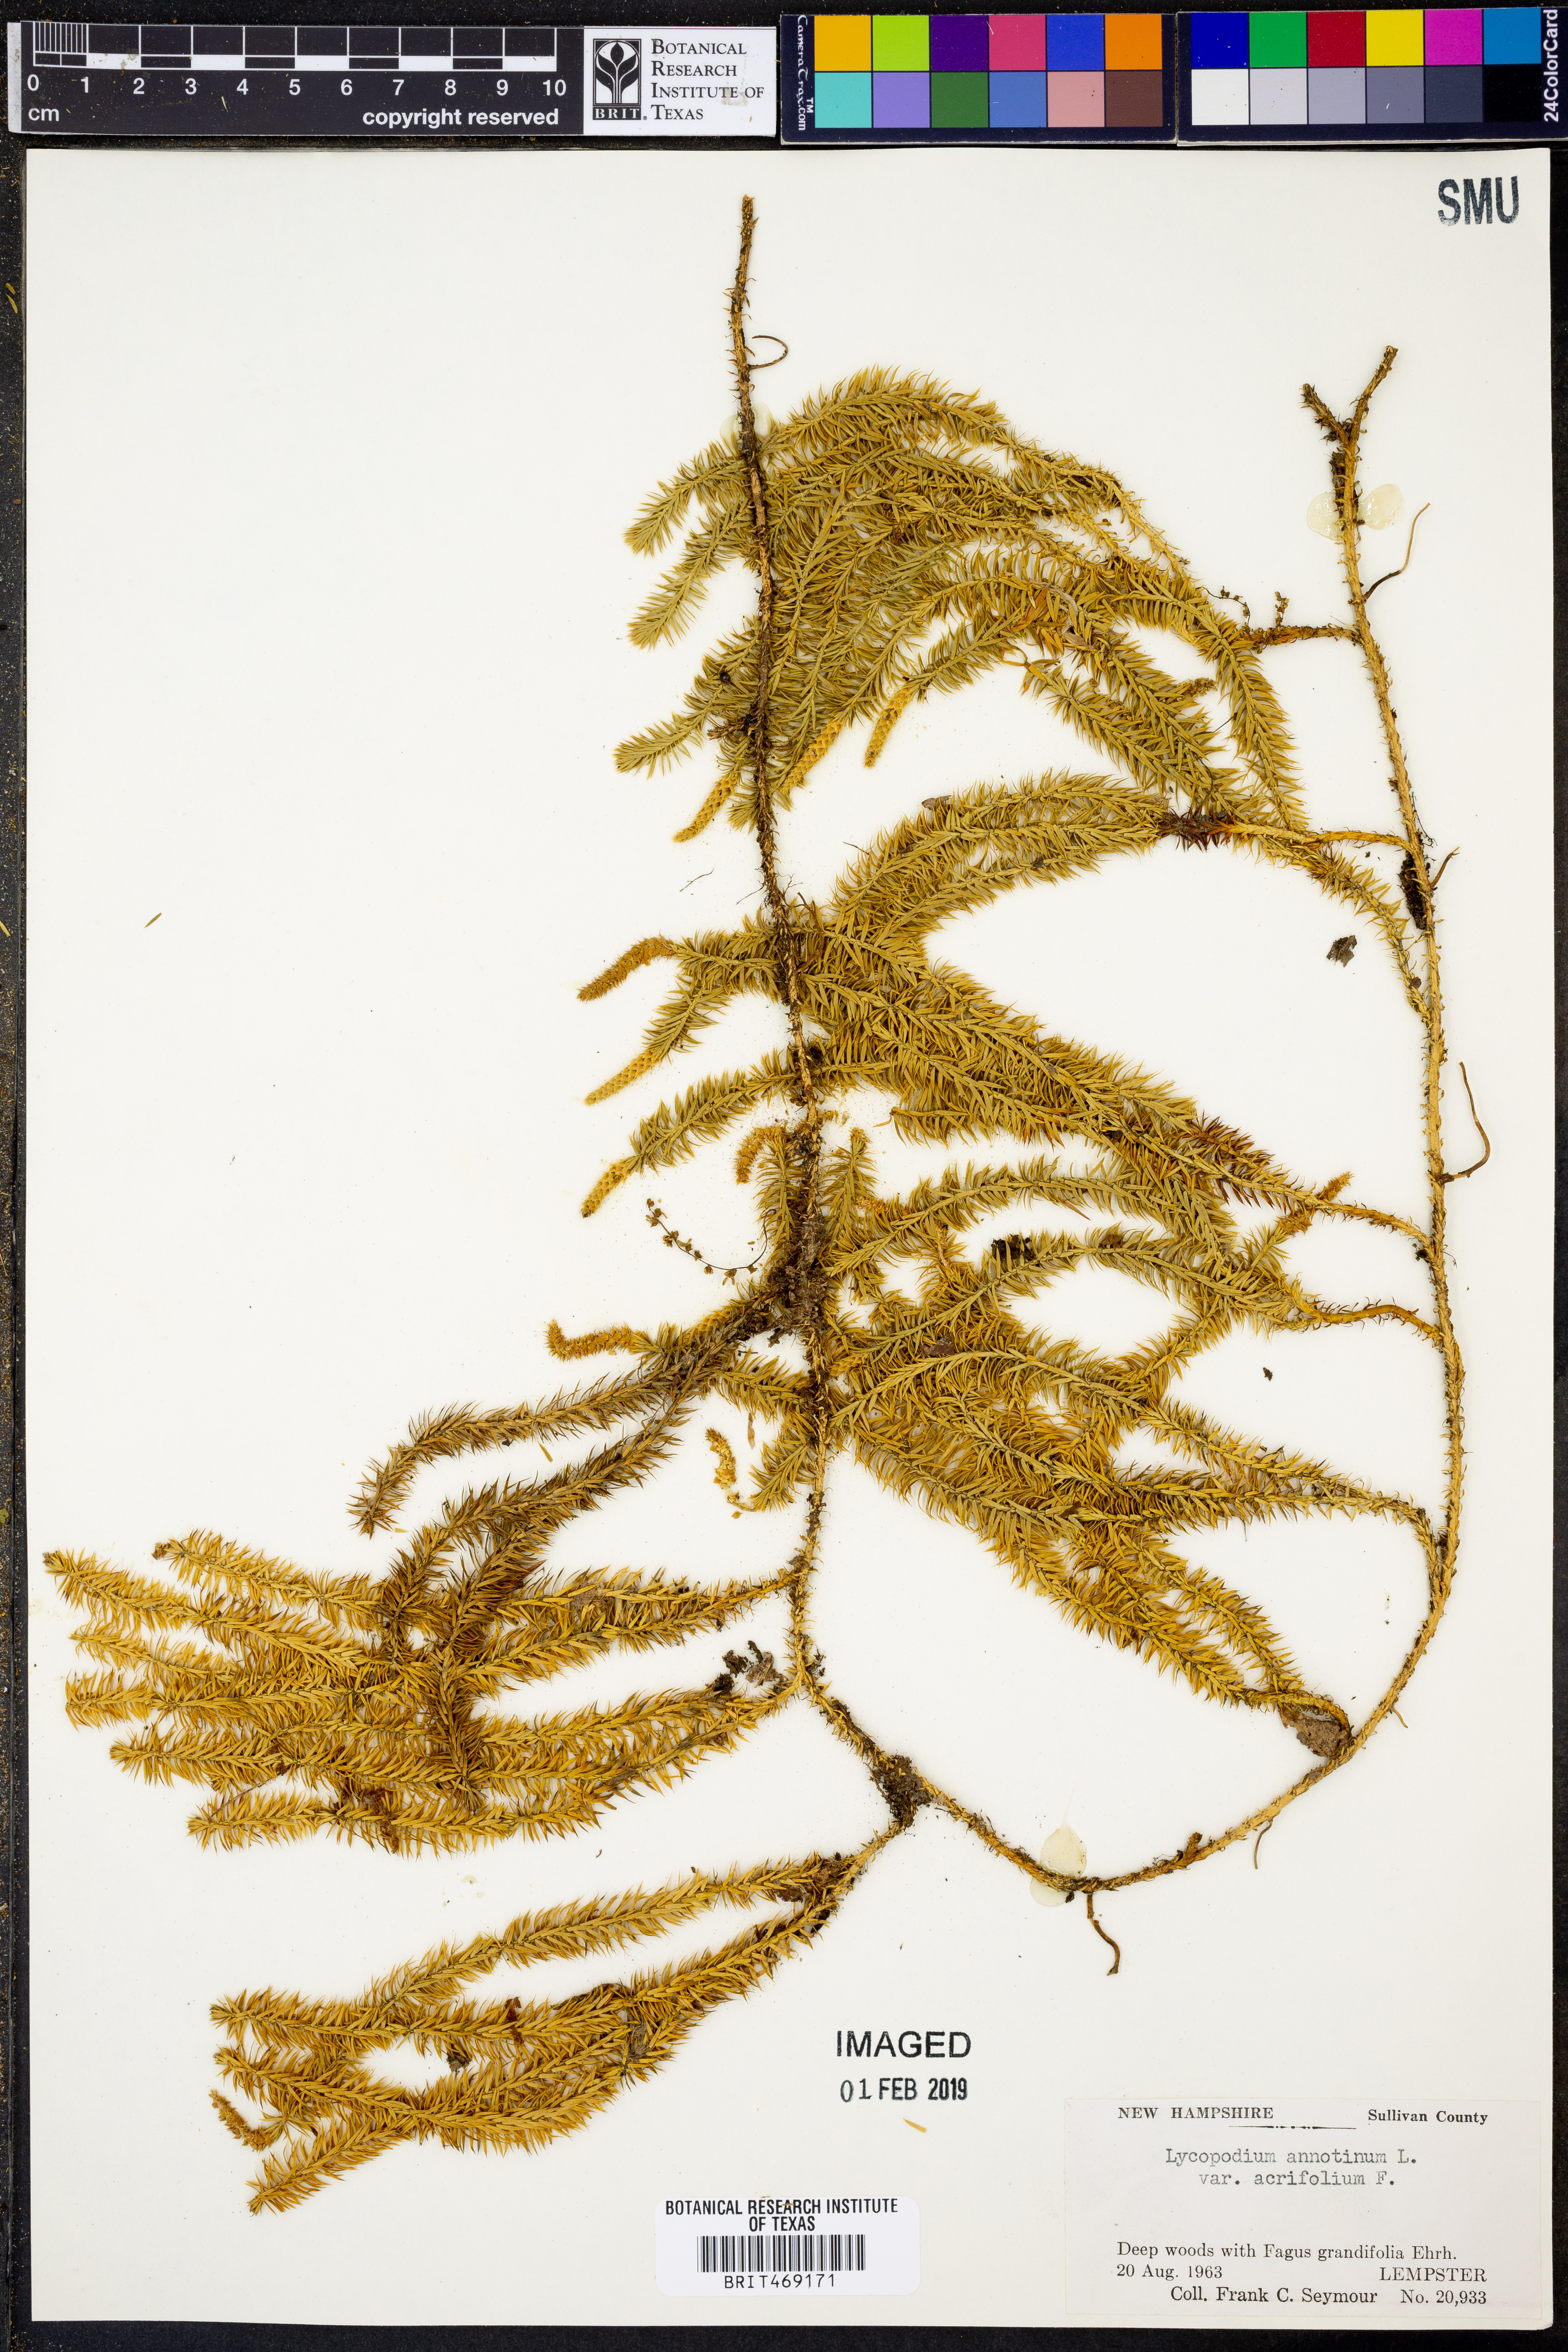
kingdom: Plantae
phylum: Tracheophyta
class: Lycopodiopsida
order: Lycopodiales
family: Lycopodiaceae
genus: Spinulum
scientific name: Spinulum annotinum
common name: Interrupted club-moss
